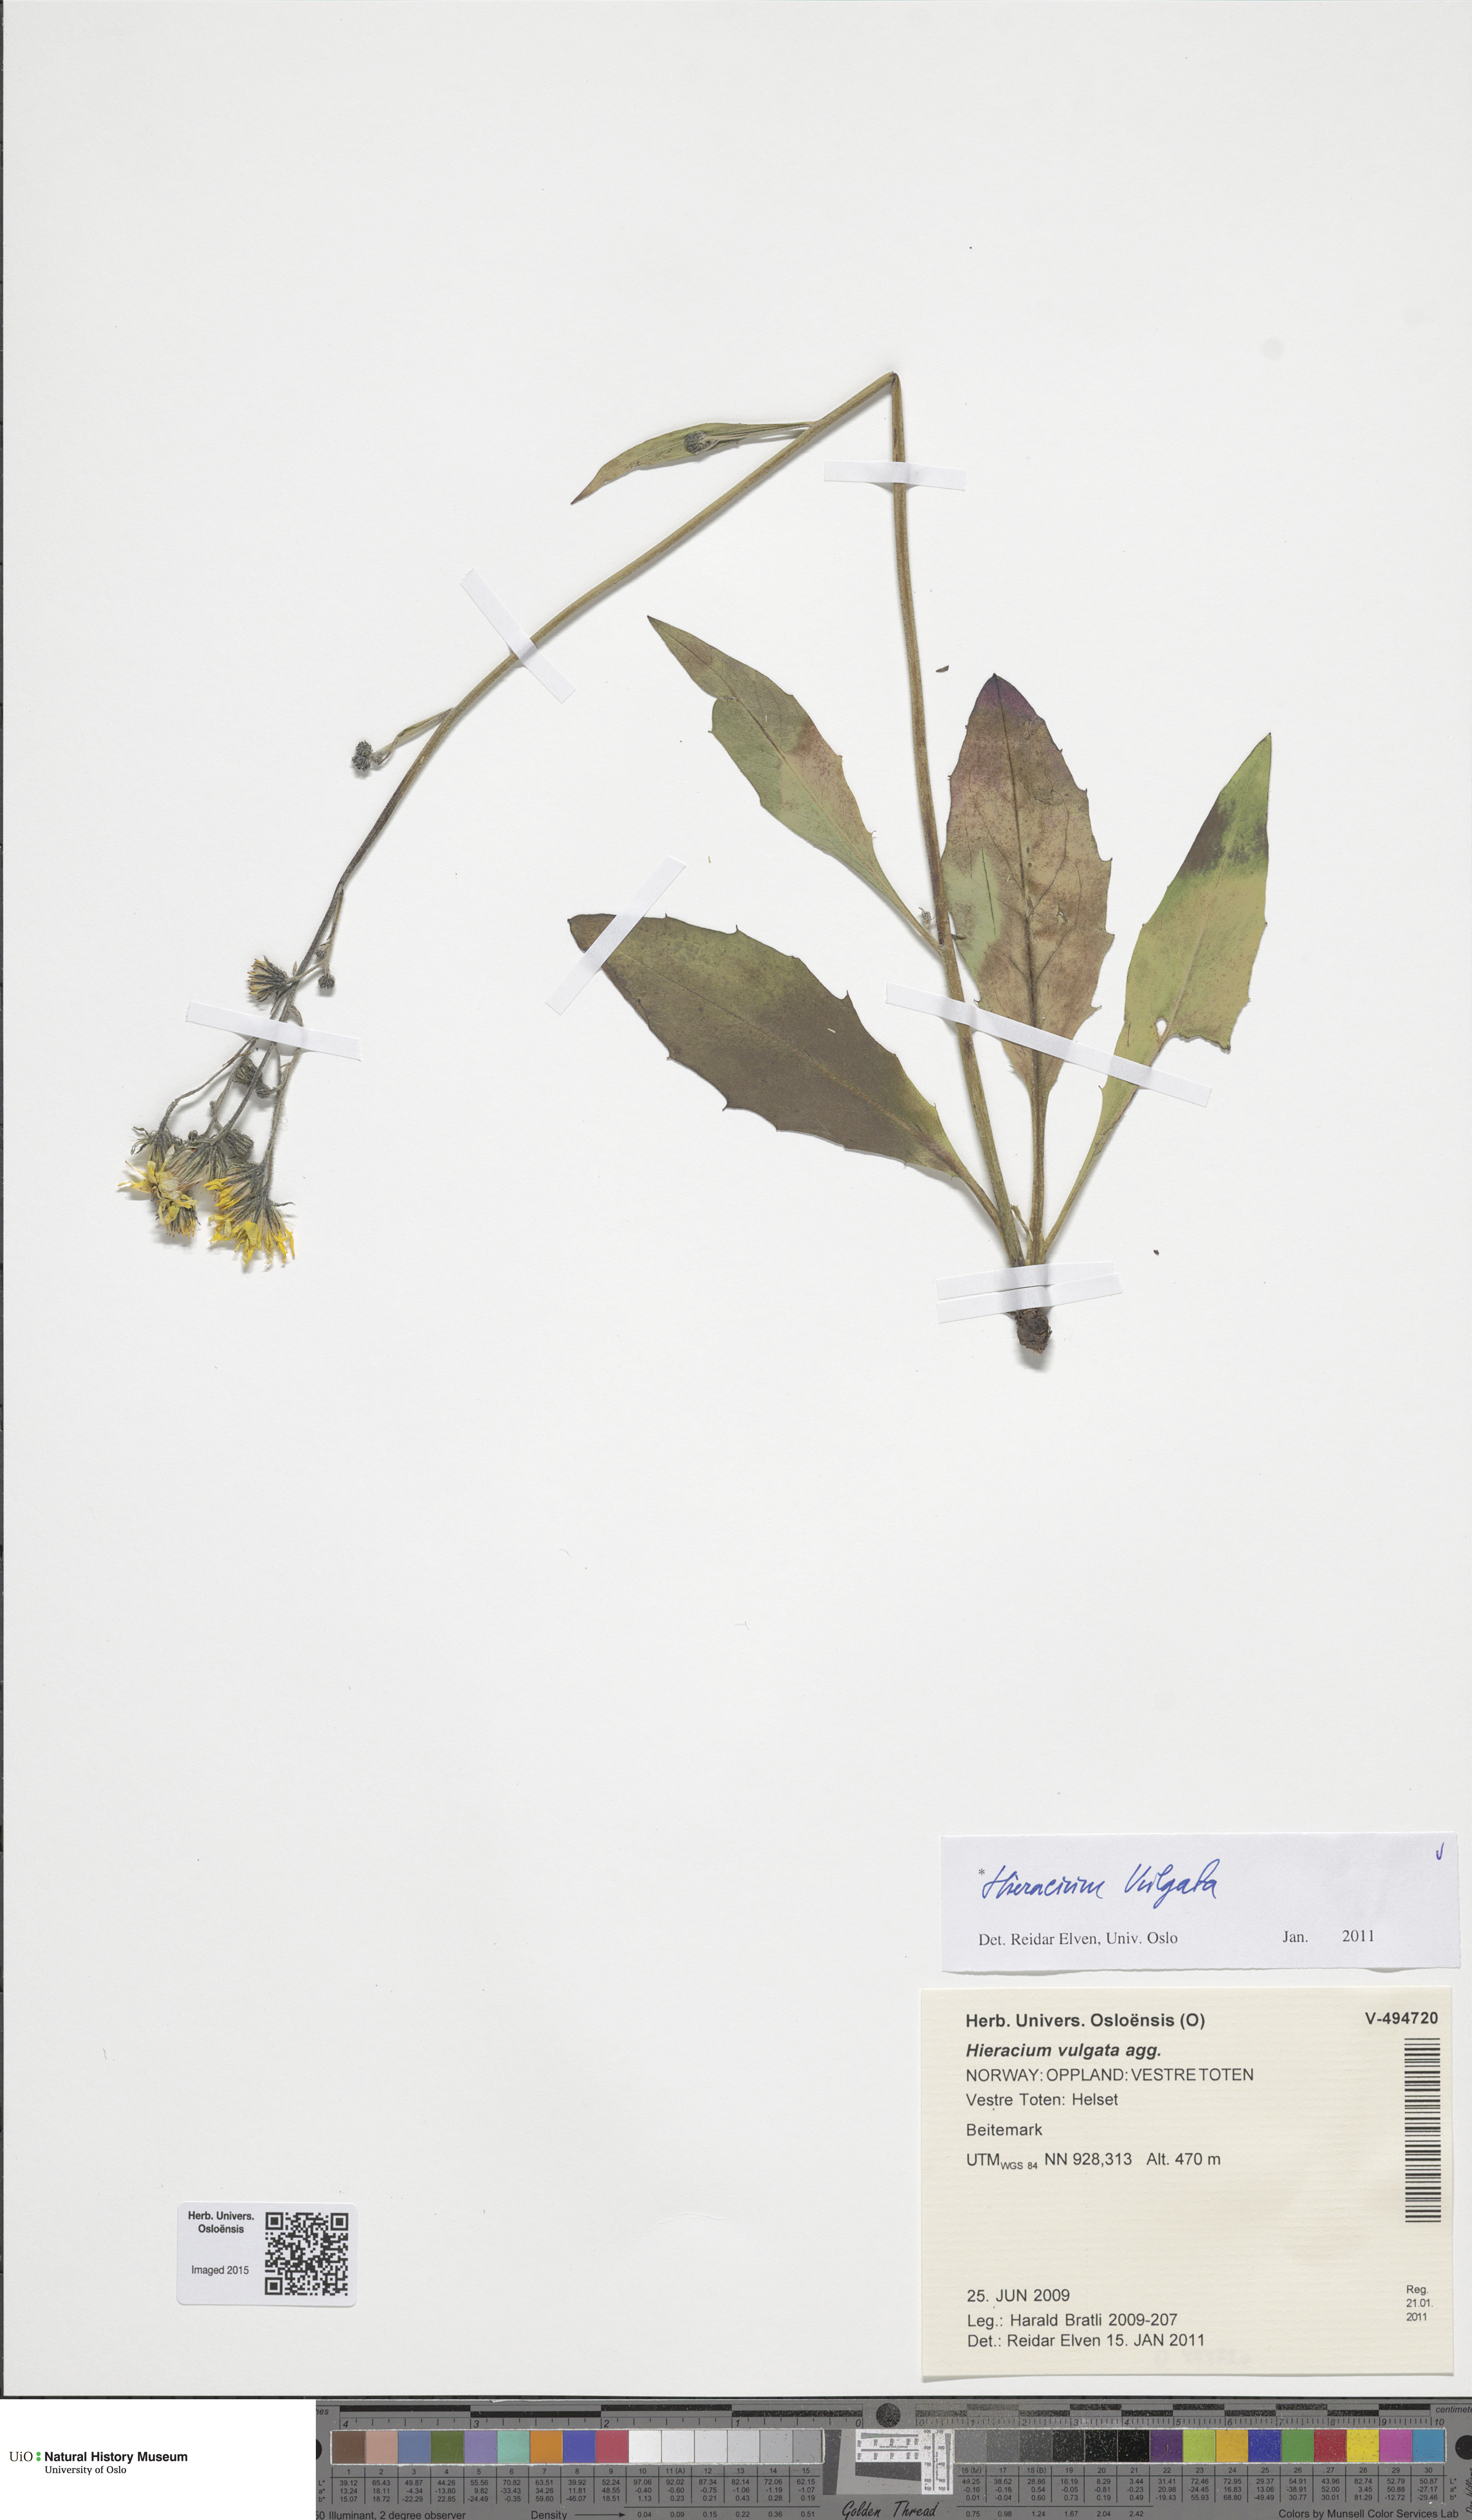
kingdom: Plantae
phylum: Tracheophyta
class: Magnoliopsida
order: Asterales
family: Asteraceae
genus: Hieracium
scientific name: Hieracium vulgatum
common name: Common hawkweed
